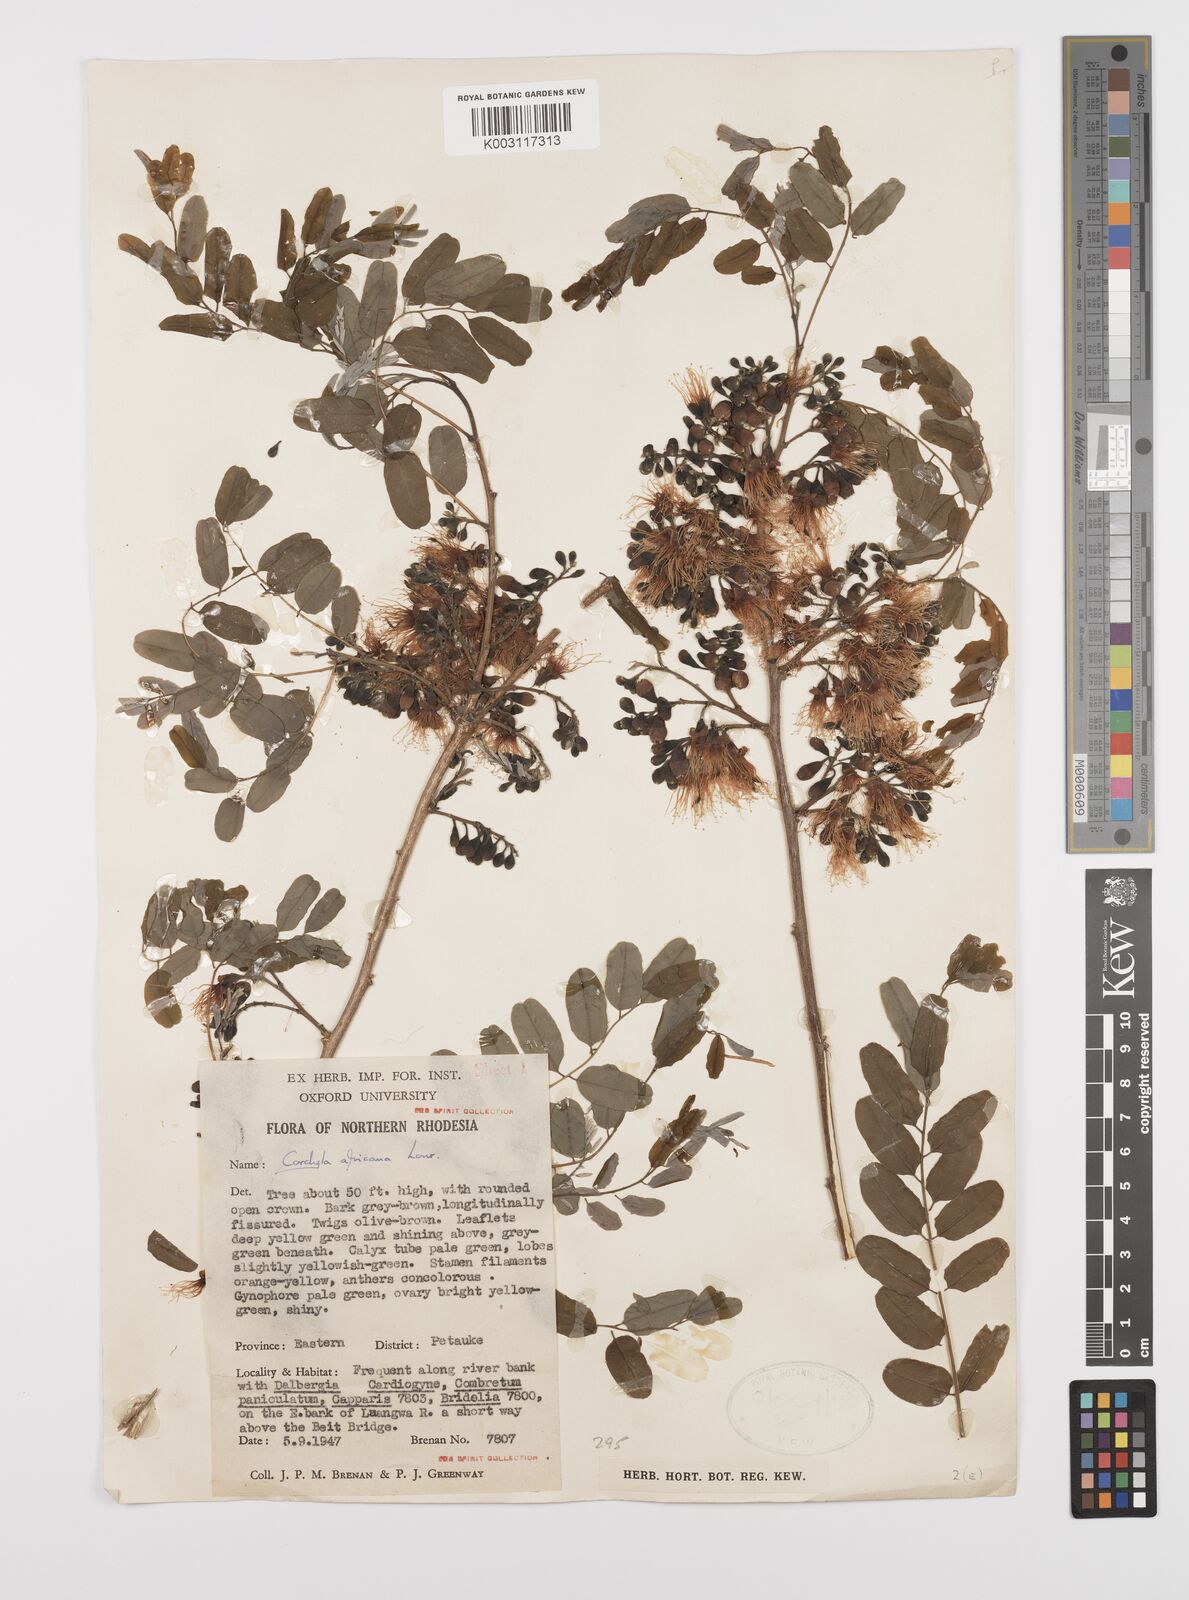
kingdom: Plantae
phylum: Tracheophyta
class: Magnoliopsida
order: Fabales
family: Fabaceae
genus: Cordyla
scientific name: Cordyla africana
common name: Wild mango
